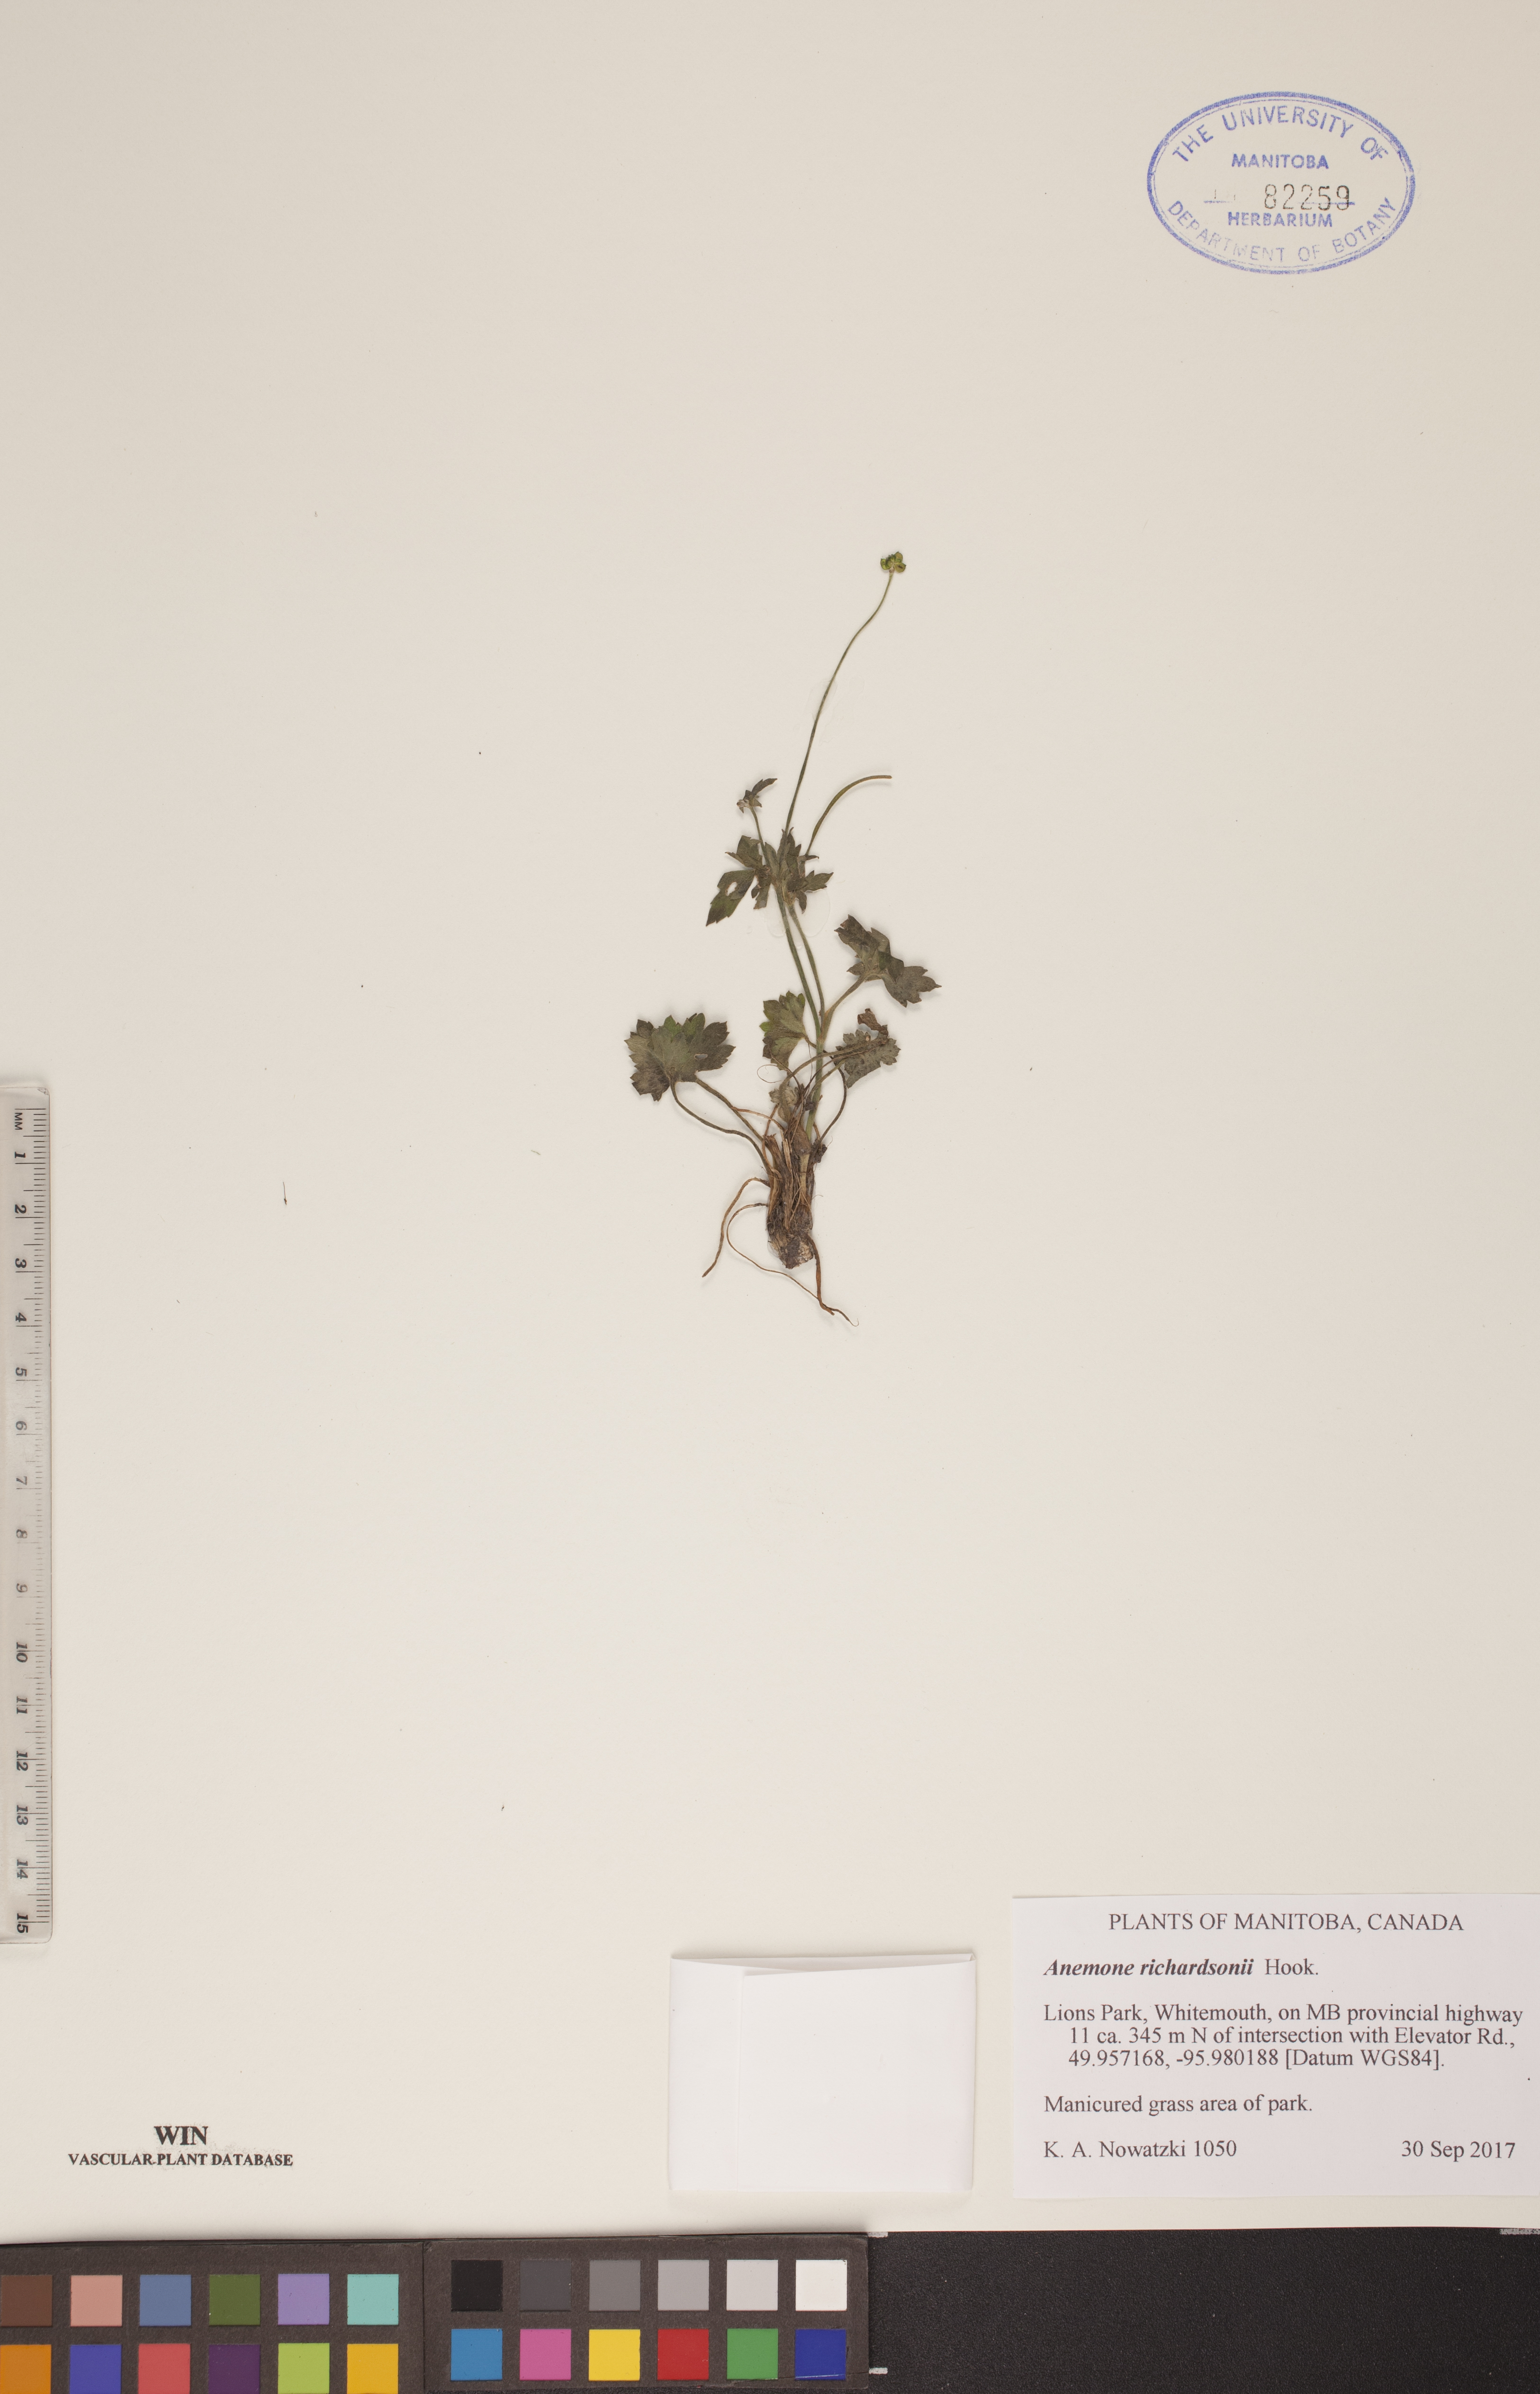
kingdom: Plantae
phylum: Tracheophyta
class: Magnoliopsida
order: Ranunculales
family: Ranunculaceae
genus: Anemonastrum
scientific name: Anemonastrum richardsonii
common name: Richardson's anemone
